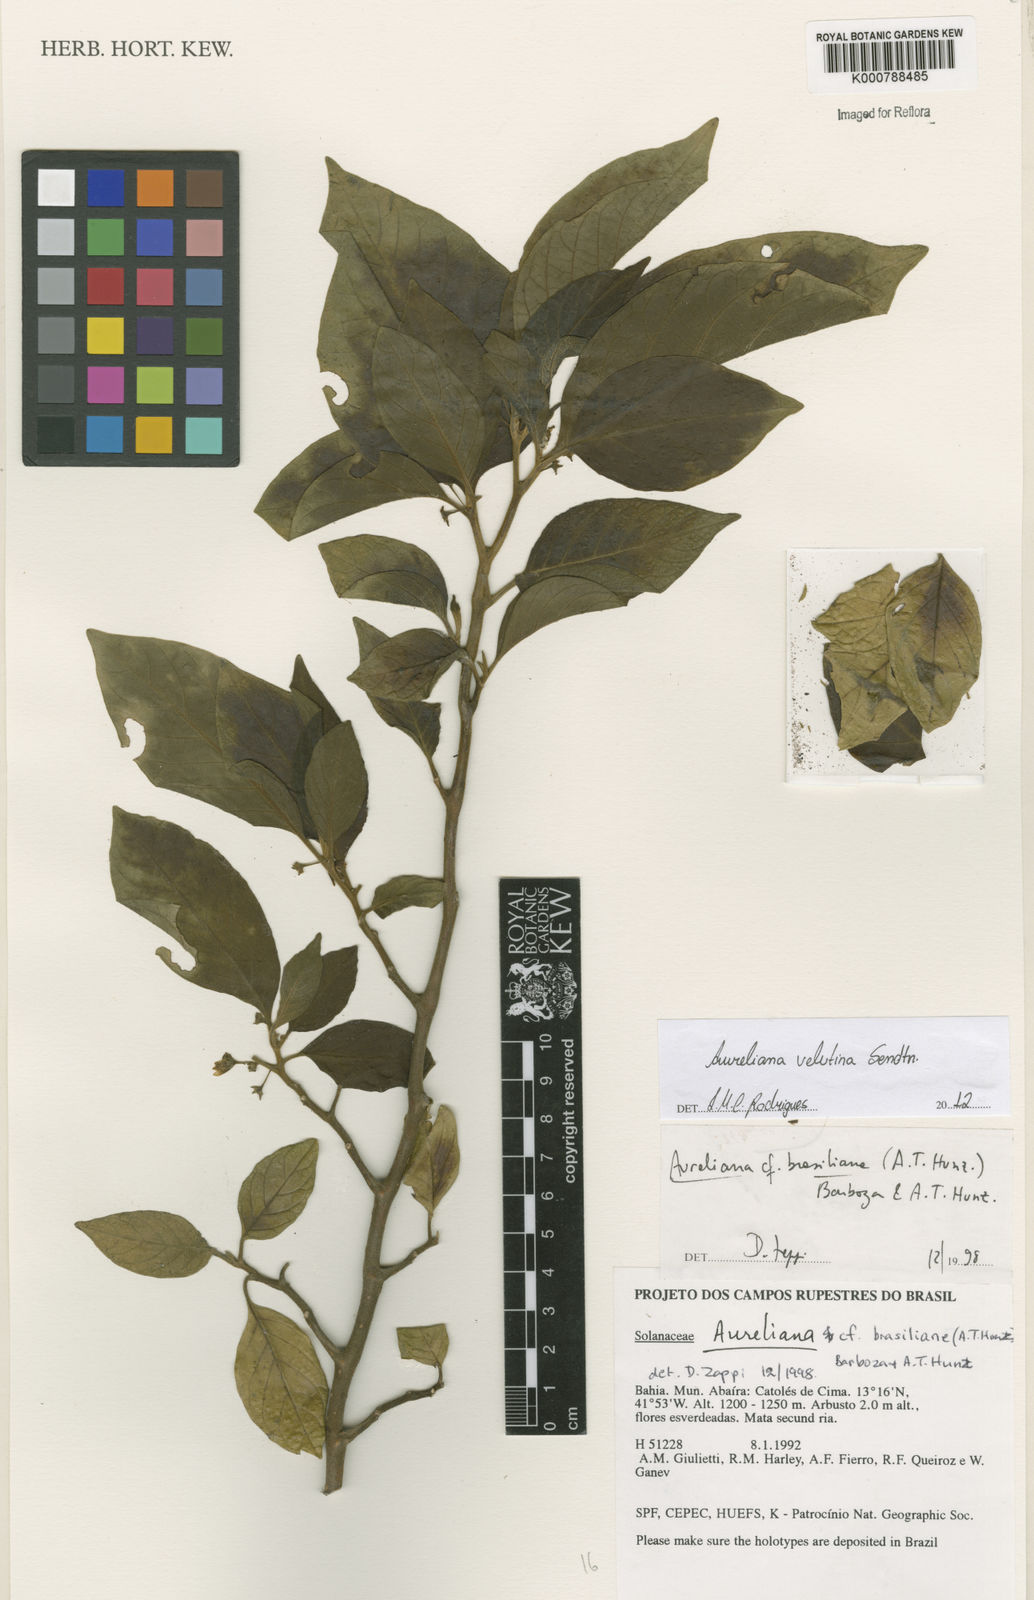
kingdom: Plantae
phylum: Tracheophyta
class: Magnoliopsida
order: Solanales
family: Solanaceae
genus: Athenaea
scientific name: Athenaea velutina
